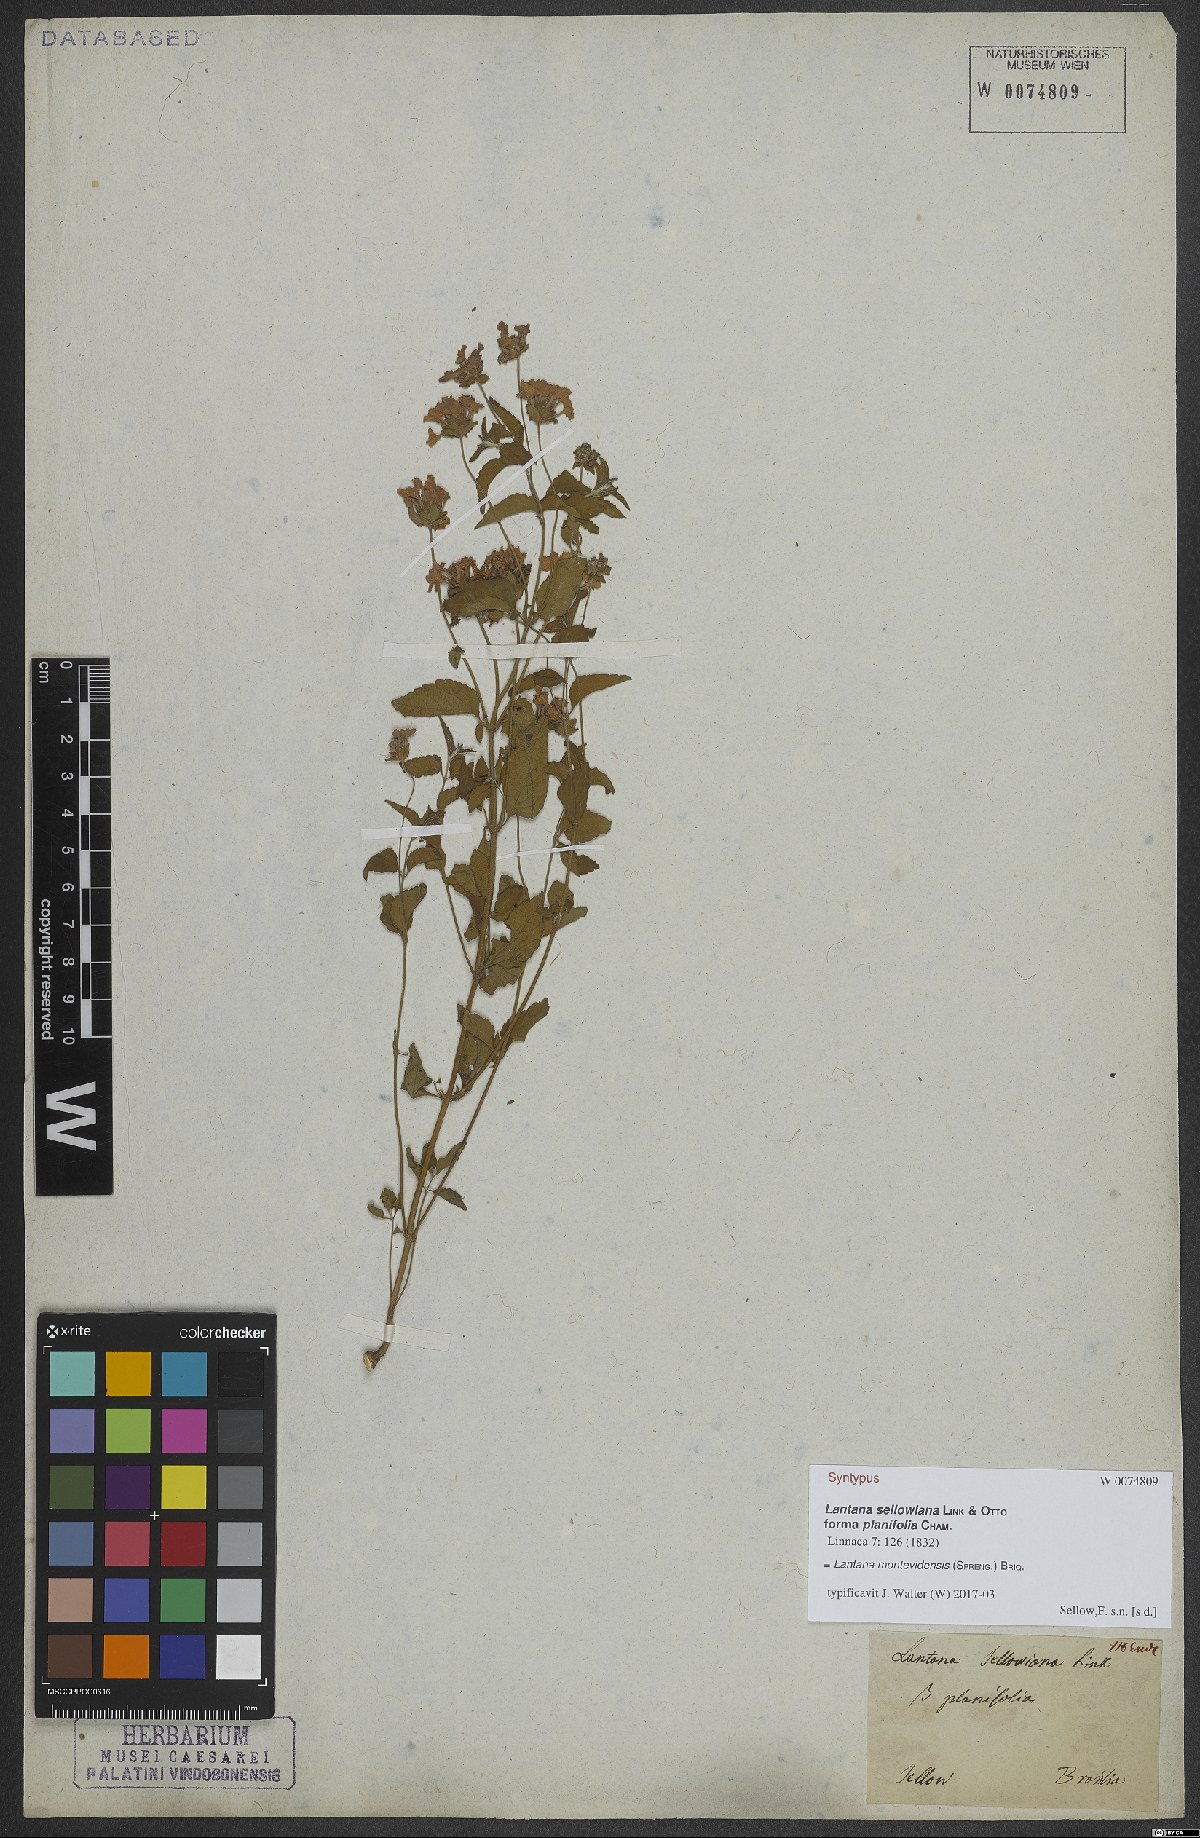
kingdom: Plantae
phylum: Tracheophyta
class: Magnoliopsida
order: Lamiales
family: Verbenaceae
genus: Lantana
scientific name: Lantana montevidensis
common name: Trailing shrubverbena
